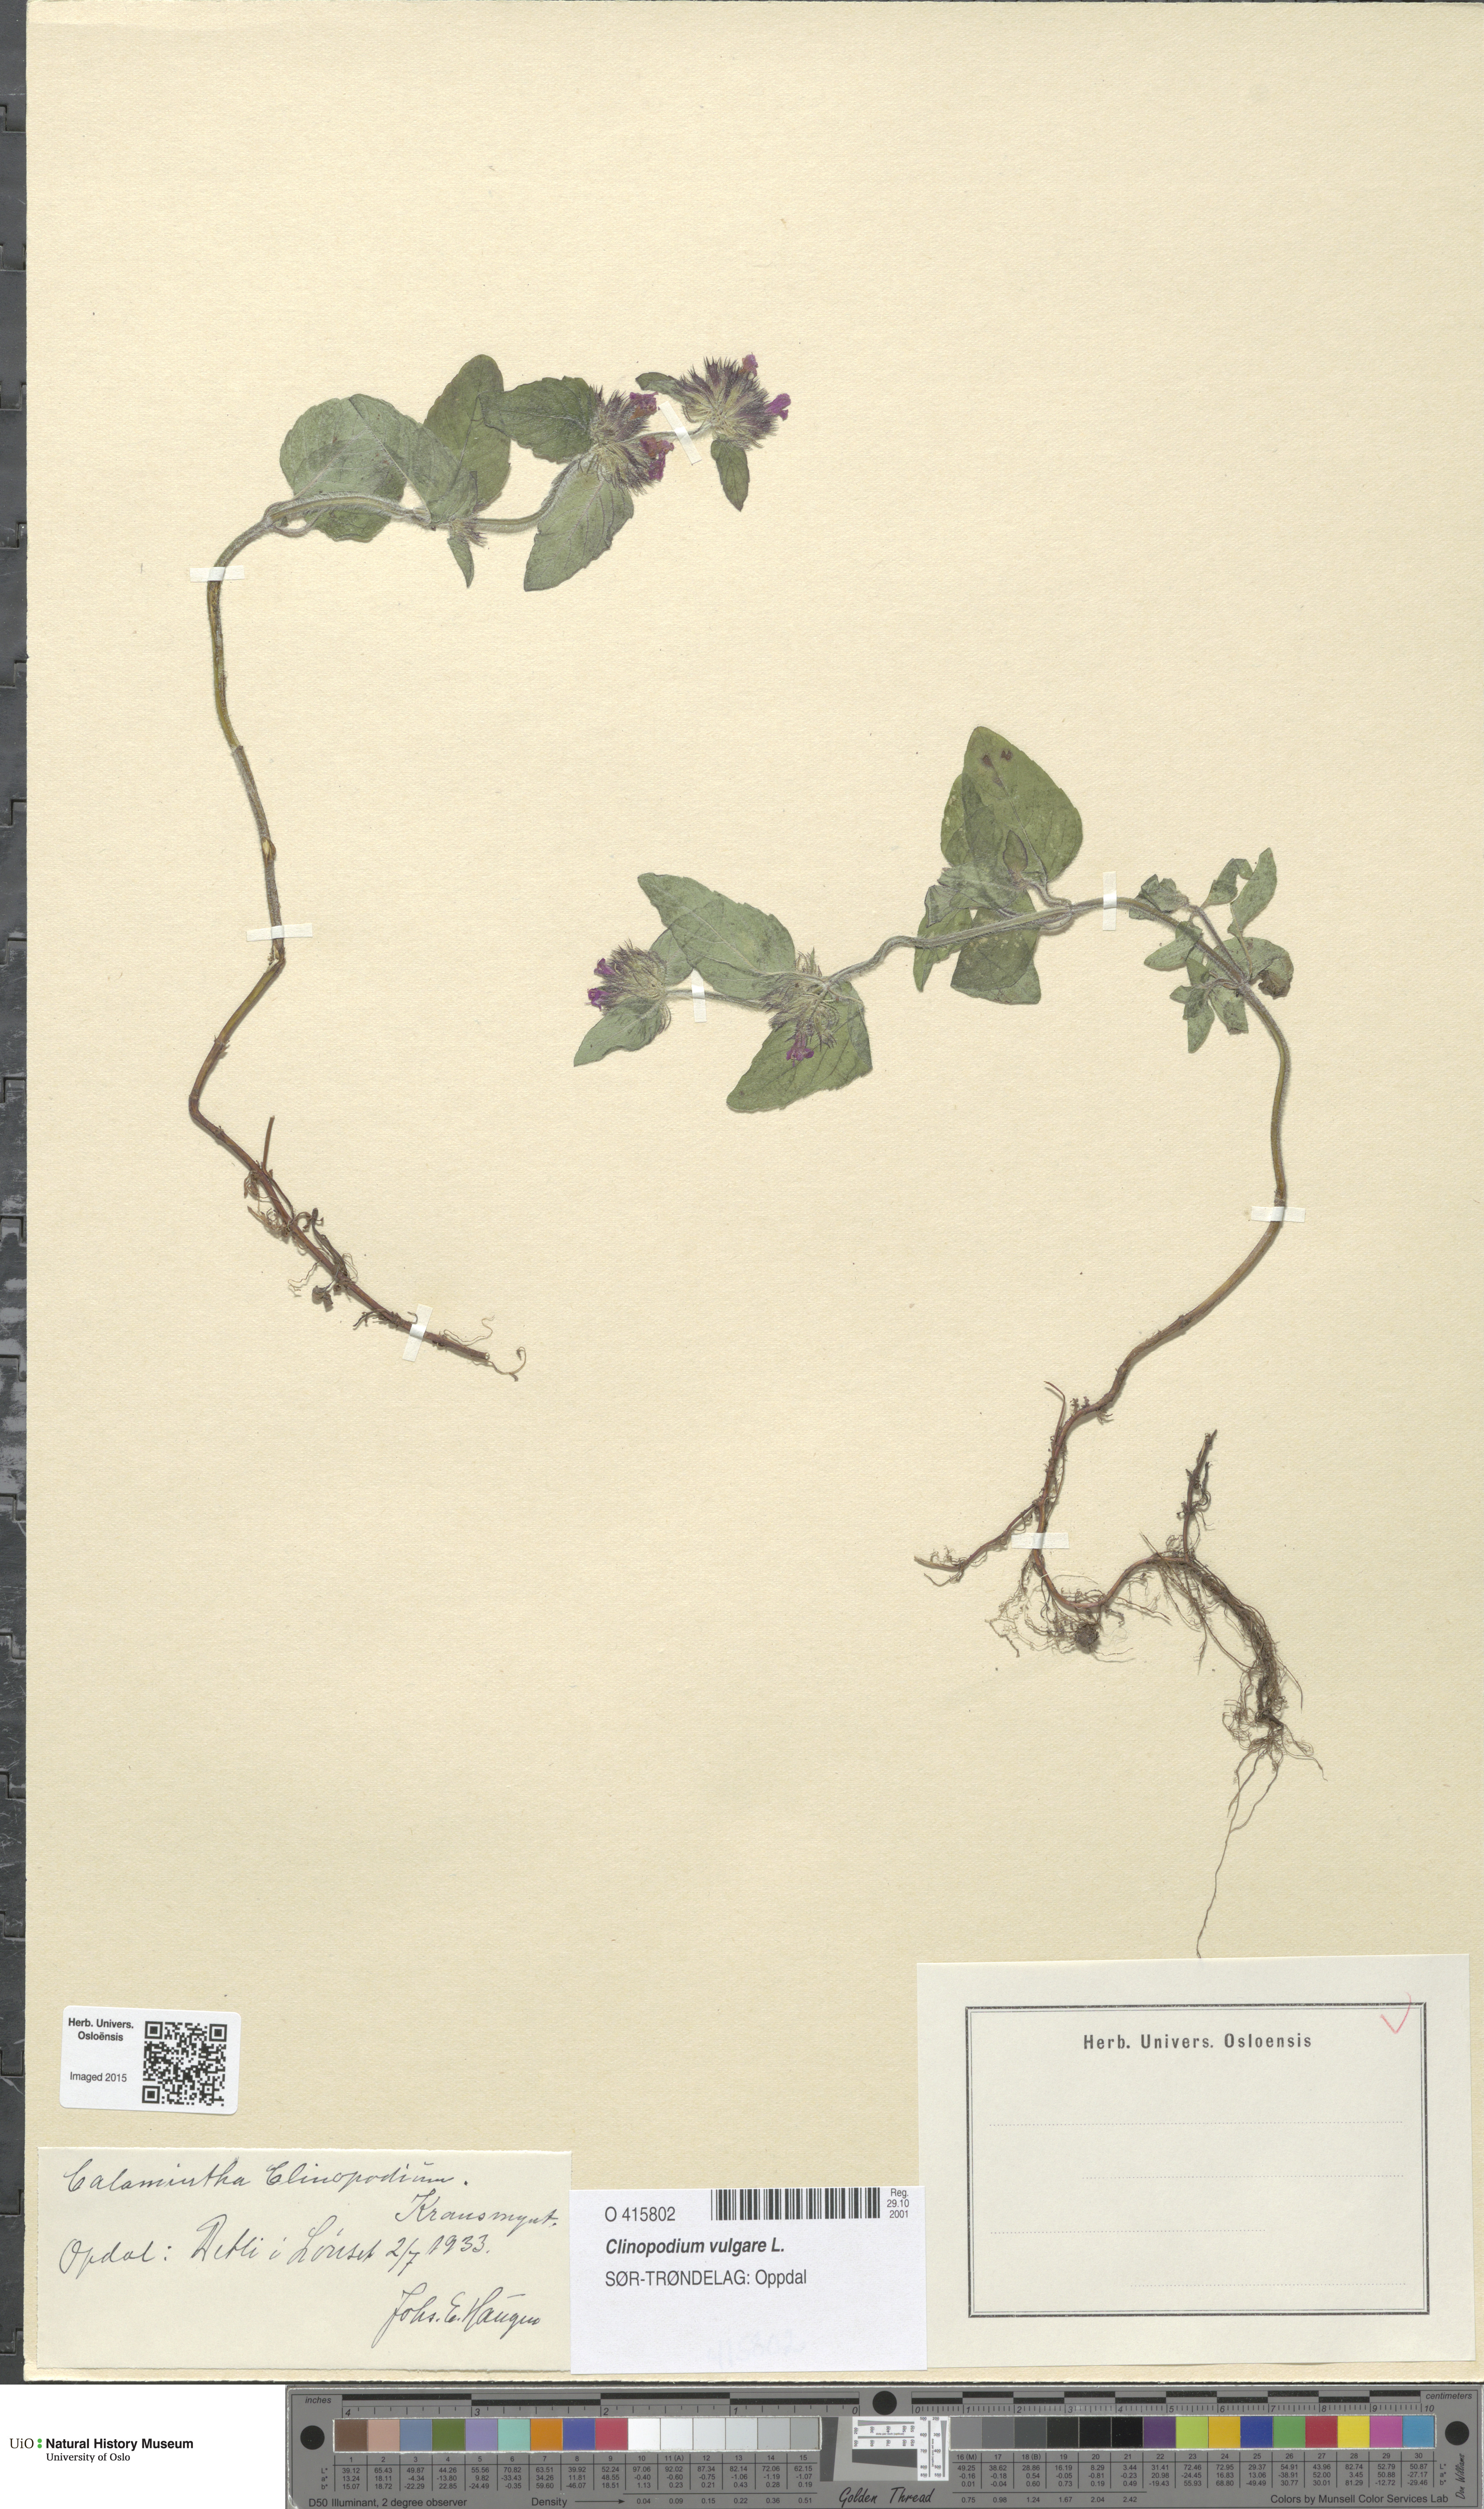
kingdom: Plantae
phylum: Tracheophyta
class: Magnoliopsida
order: Lamiales
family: Lamiaceae
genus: Clinopodium
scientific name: Clinopodium vulgare
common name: Wild basil
